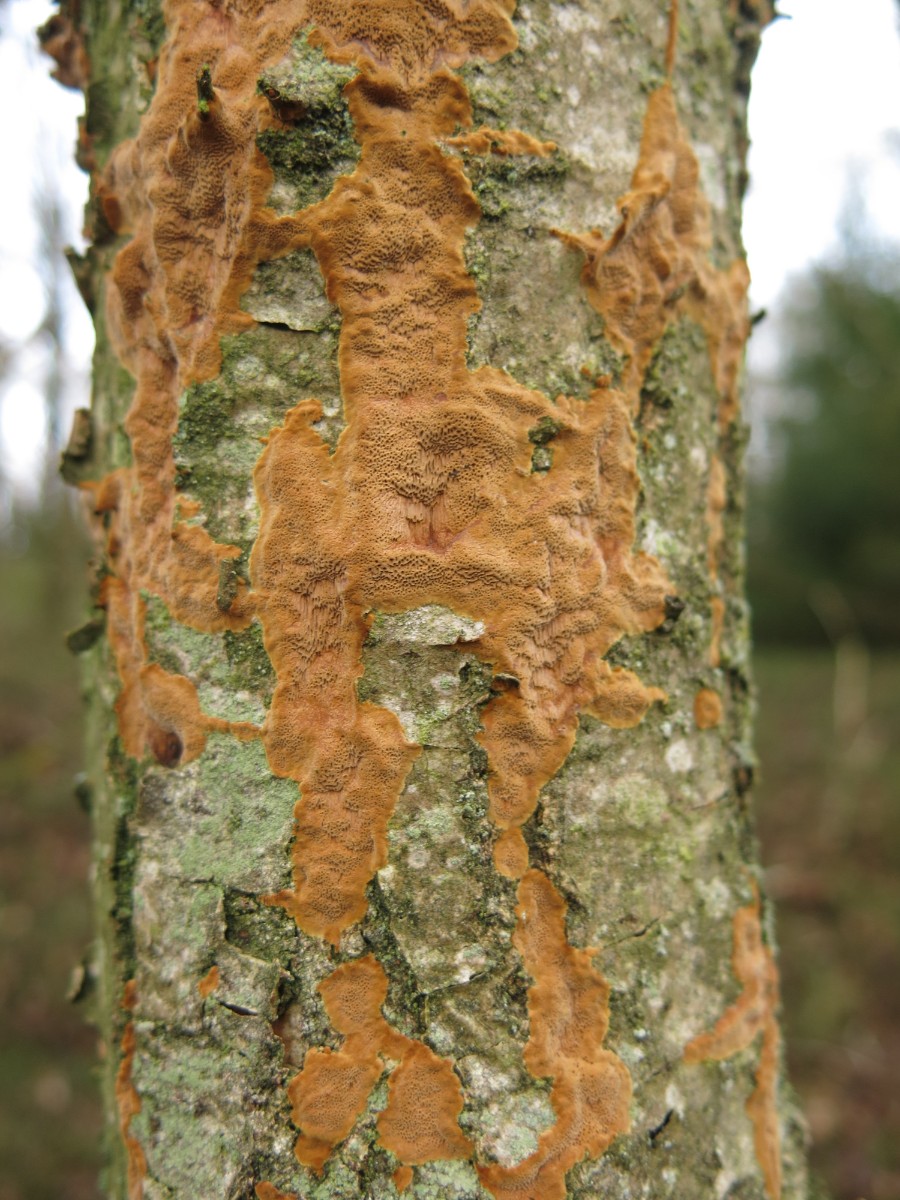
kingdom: Fungi
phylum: Basidiomycota
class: Agaricomycetes
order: Hymenochaetales
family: Hymenochaetaceae
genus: Fuscoporia
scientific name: Fuscoporia ferrea
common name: skorpe-ildporesvamp
